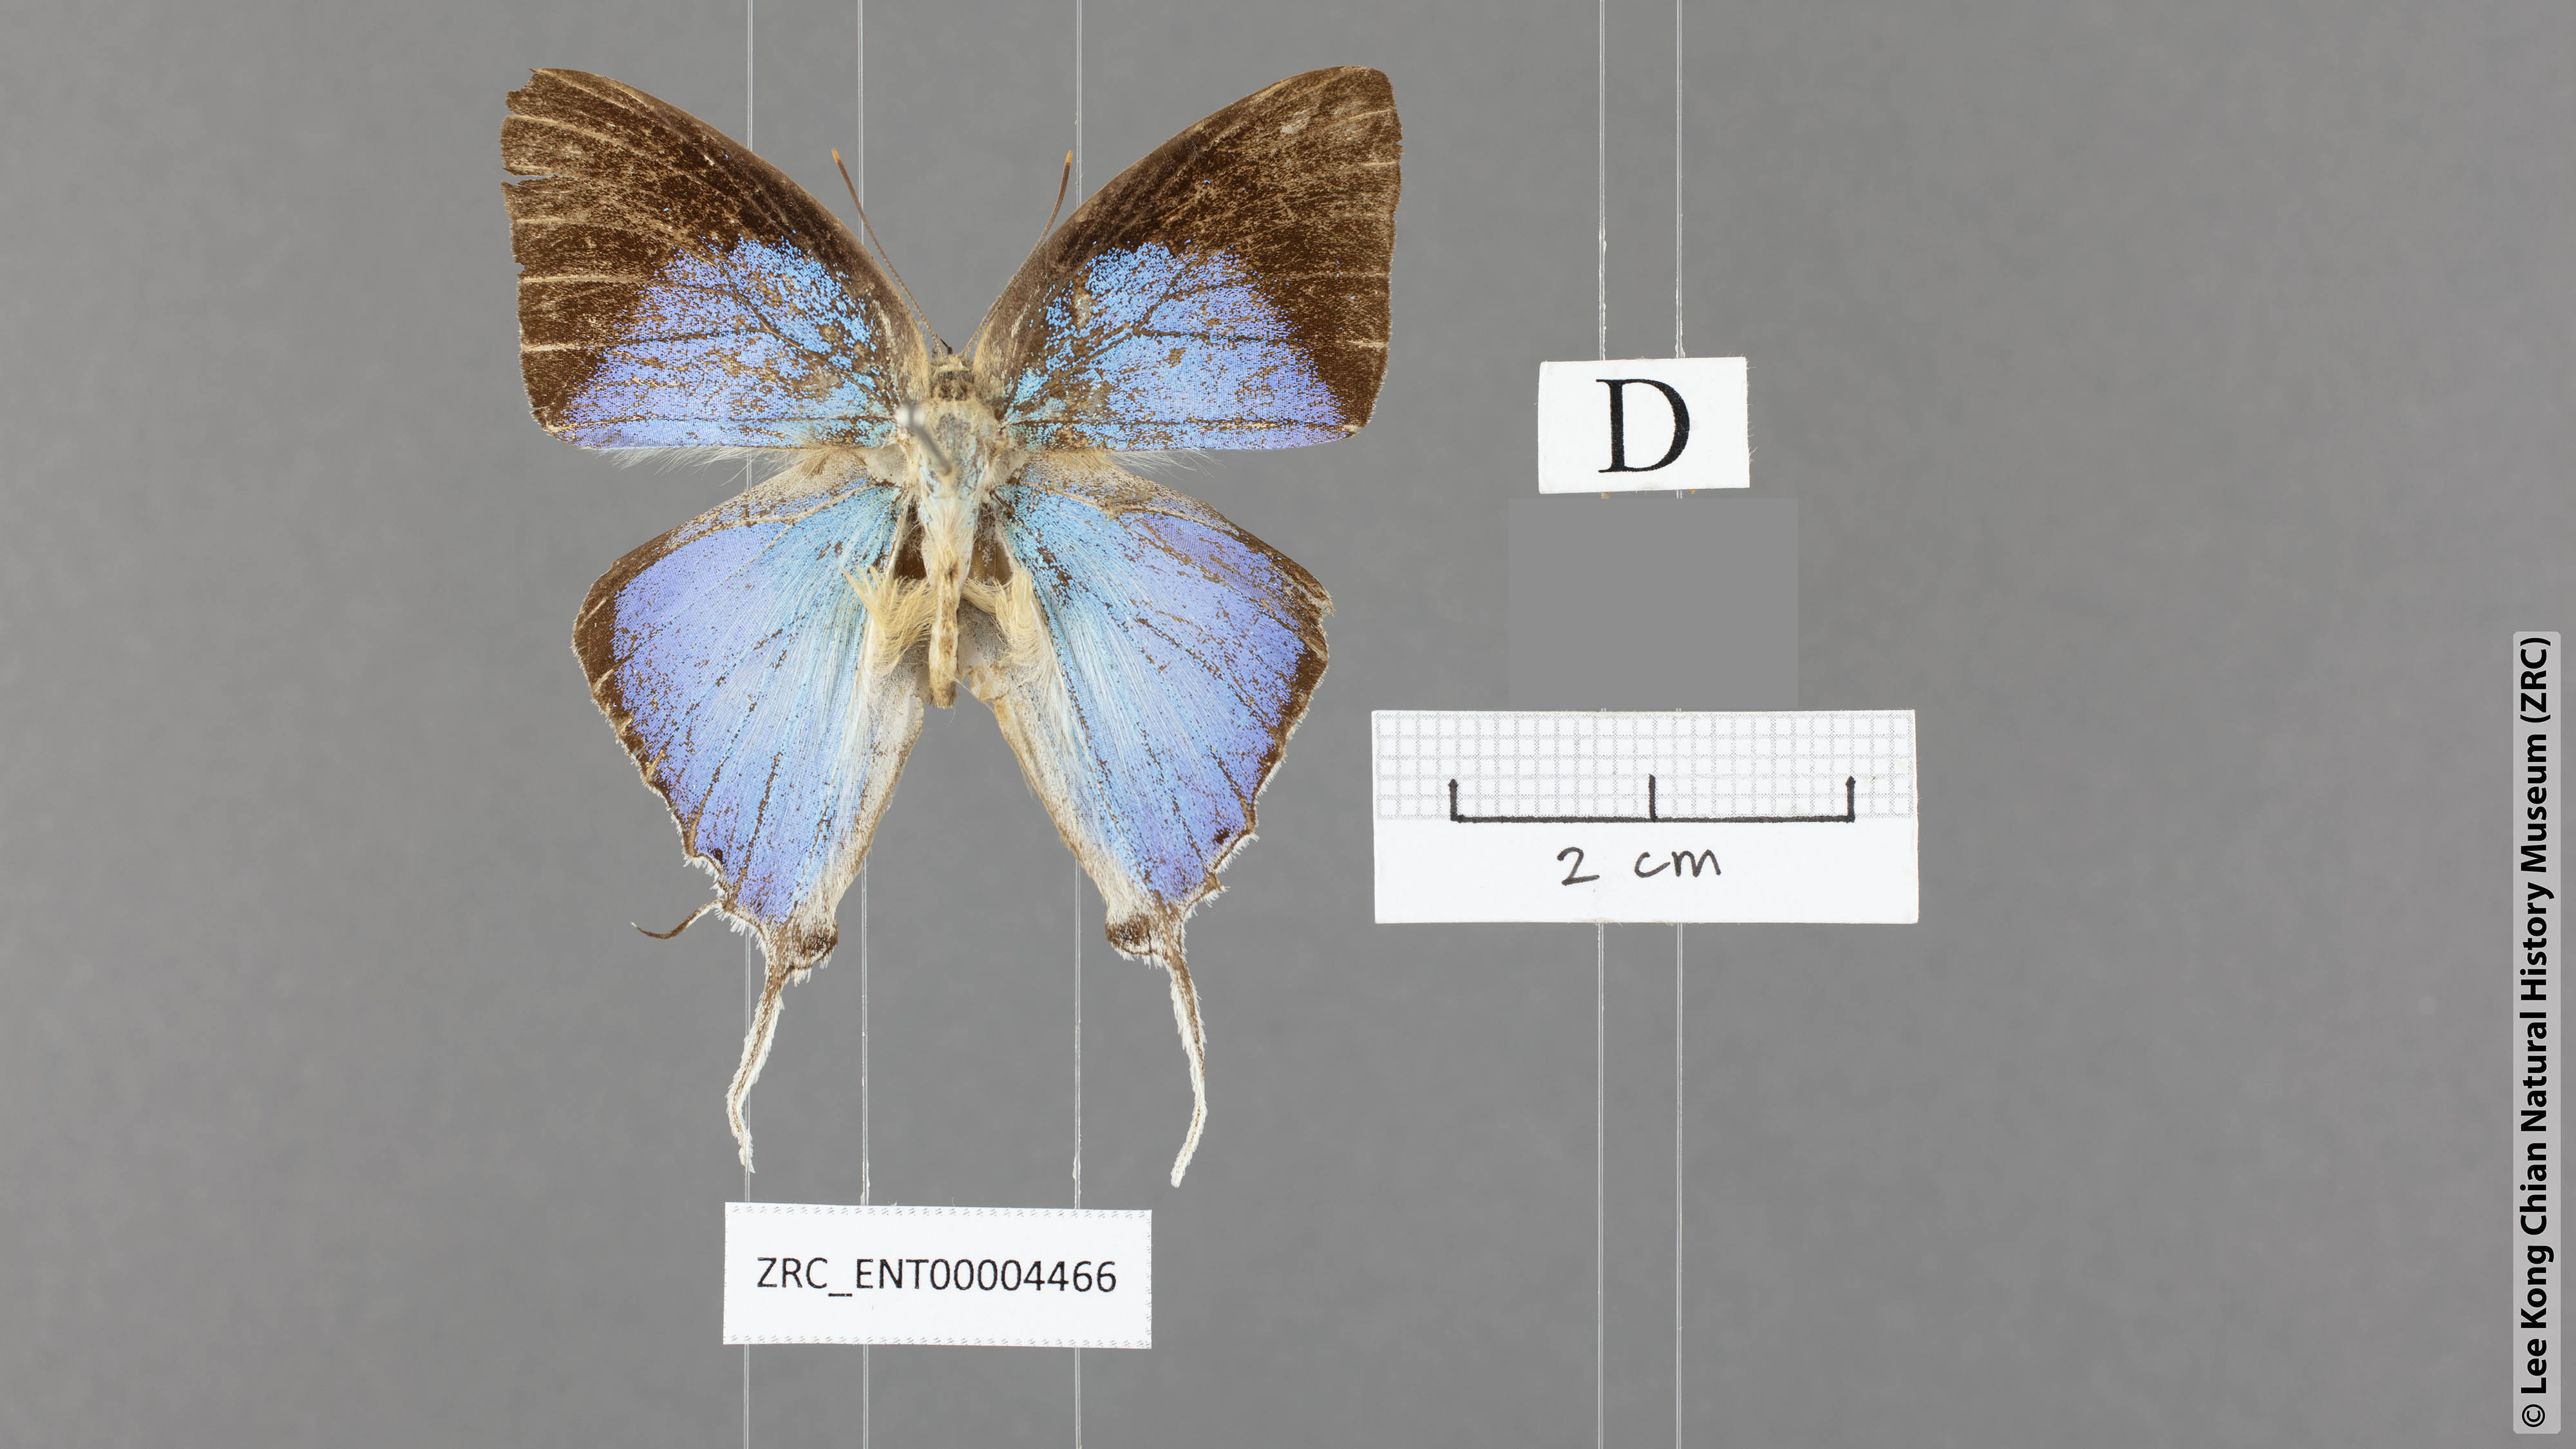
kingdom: Animalia
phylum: Arthropoda
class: Insecta
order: Lepidoptera
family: Lycaenidae
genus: Purlisa
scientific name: Purlisa giganteus
